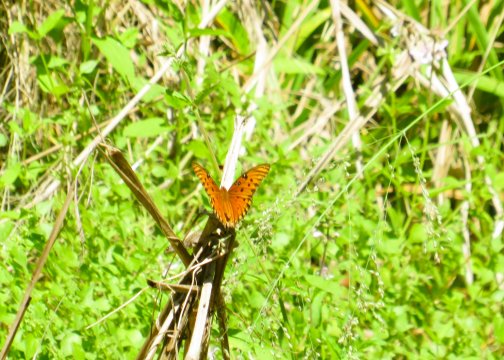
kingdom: Animalia
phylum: Arthropoda
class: Insecta
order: Lepidoptera
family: Nymphalidae
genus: Dione
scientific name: Dione vanillae
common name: Gulf Fritillary
